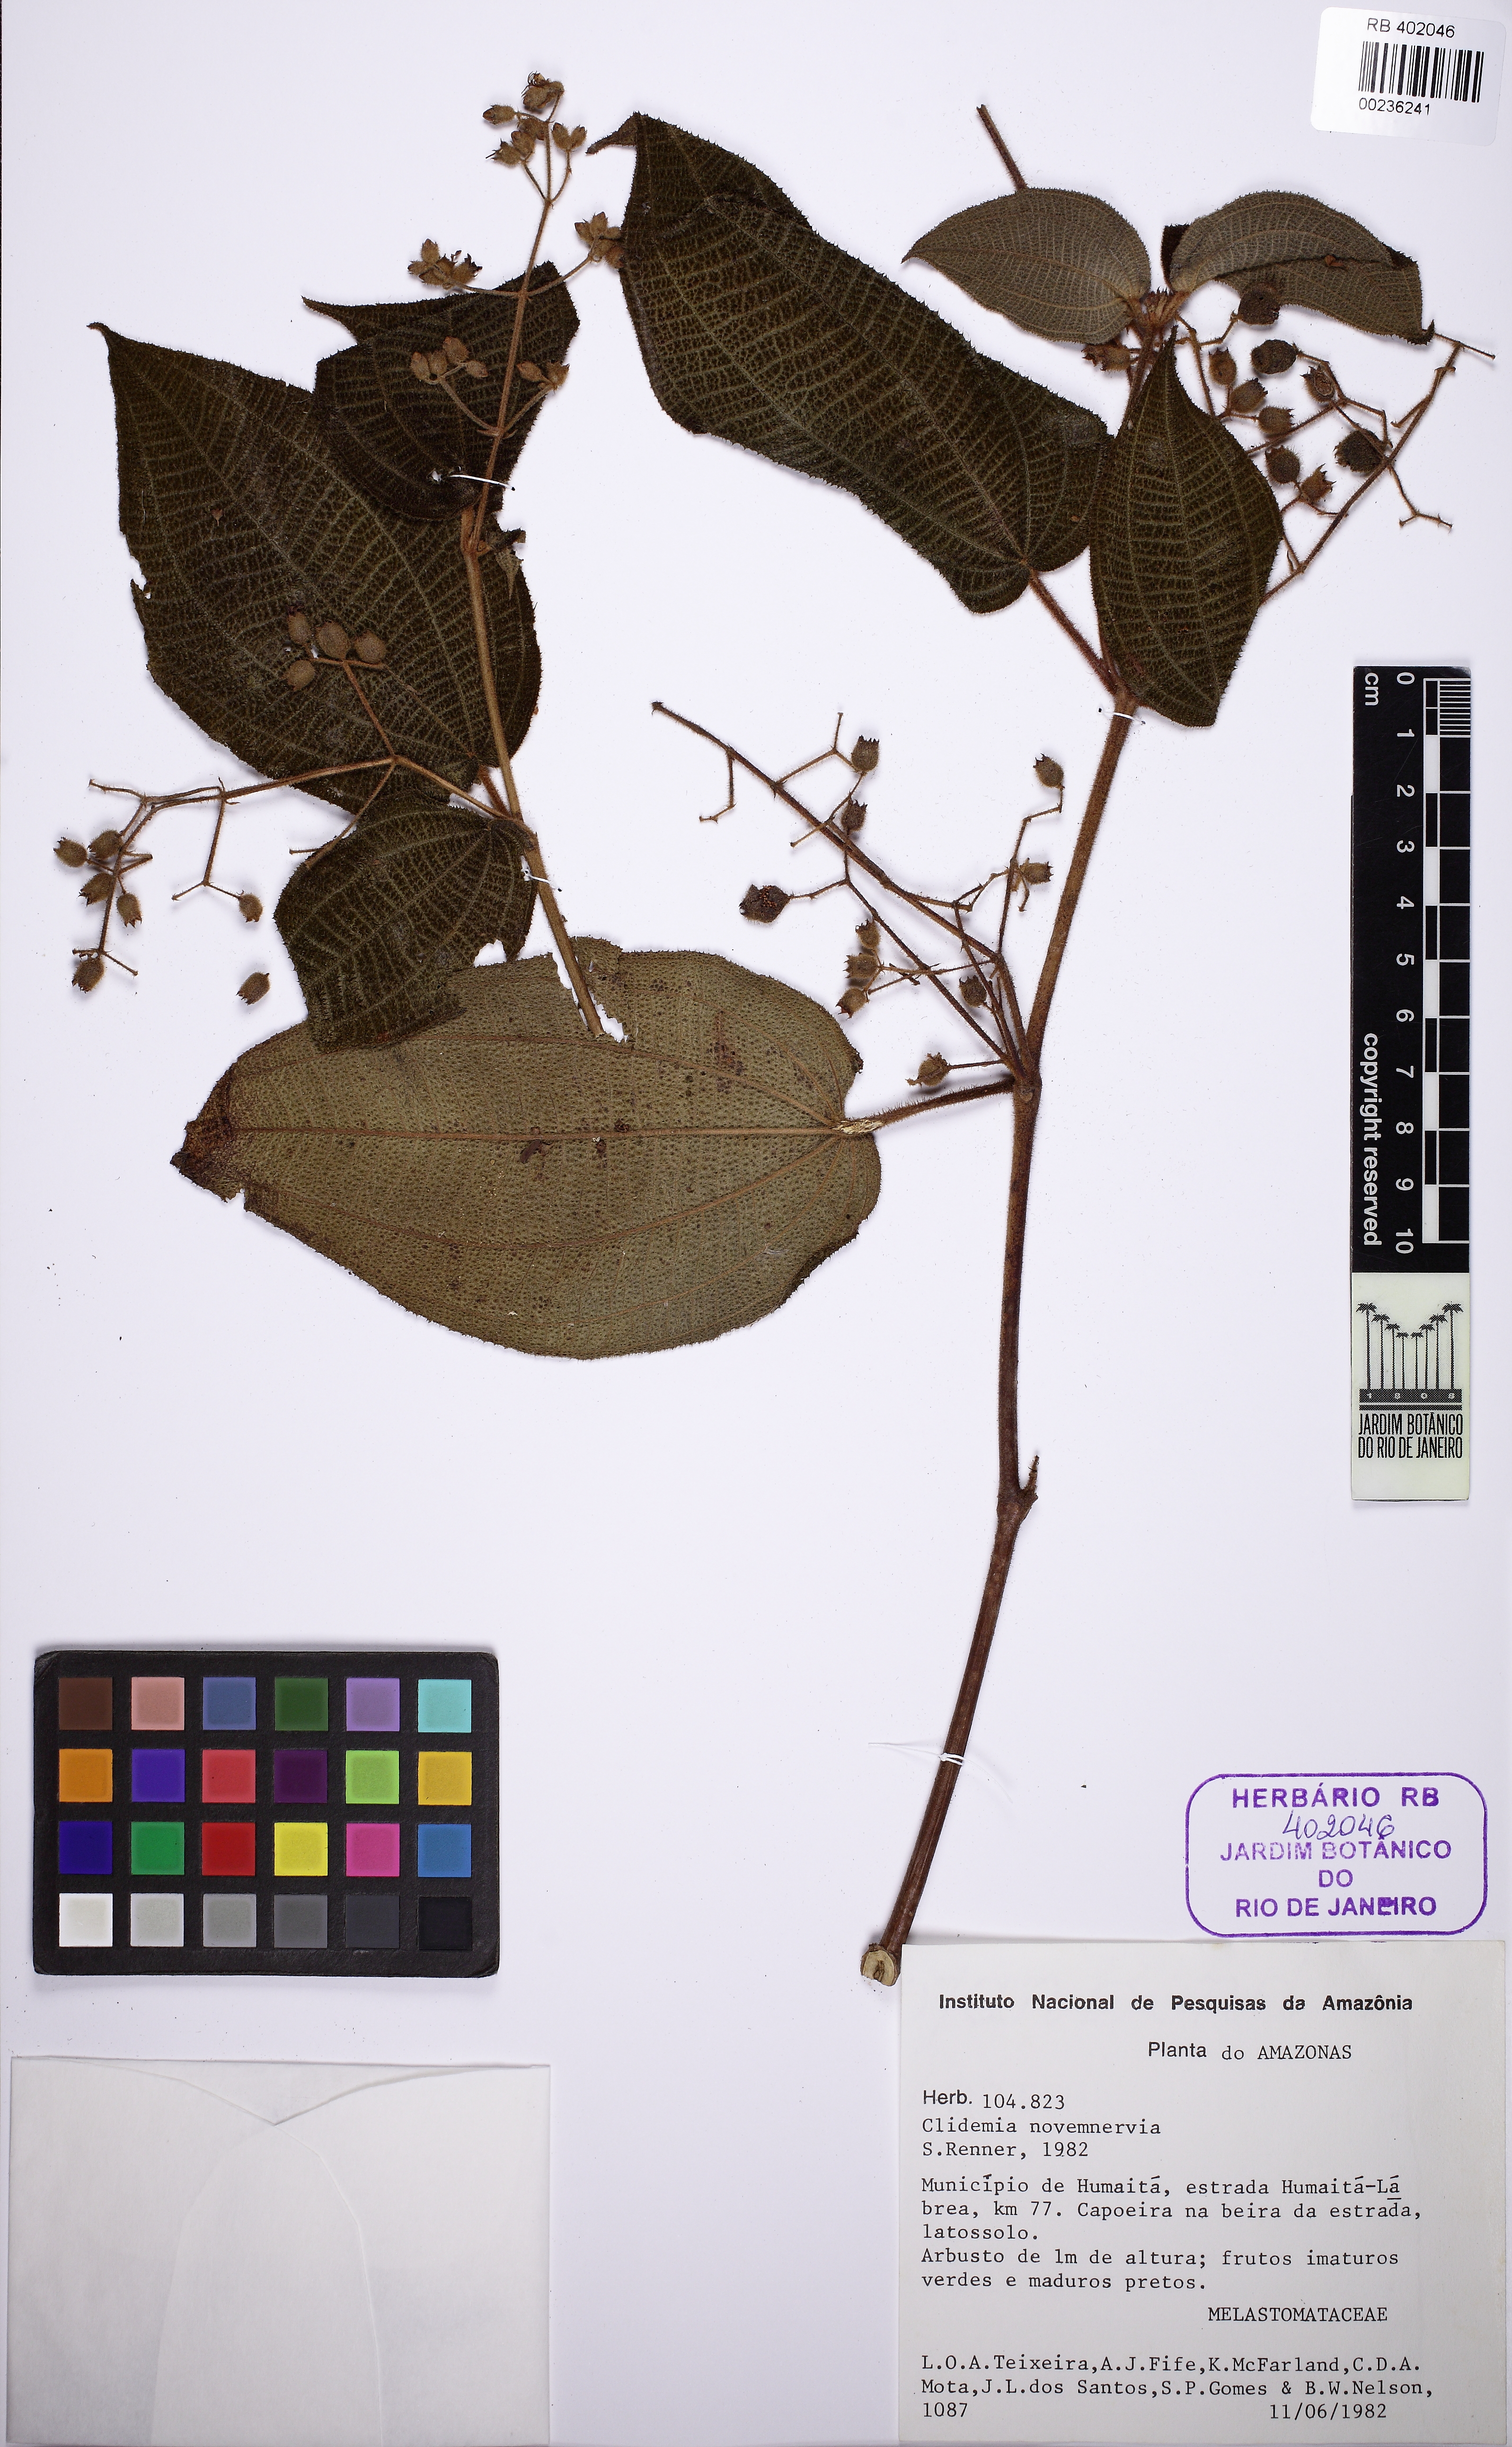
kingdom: Plantae
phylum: Tracheophyta
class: Magnoliopsida
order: Myrtales
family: Melastomataceae
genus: Miconia
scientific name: Miconia bullatifolia
